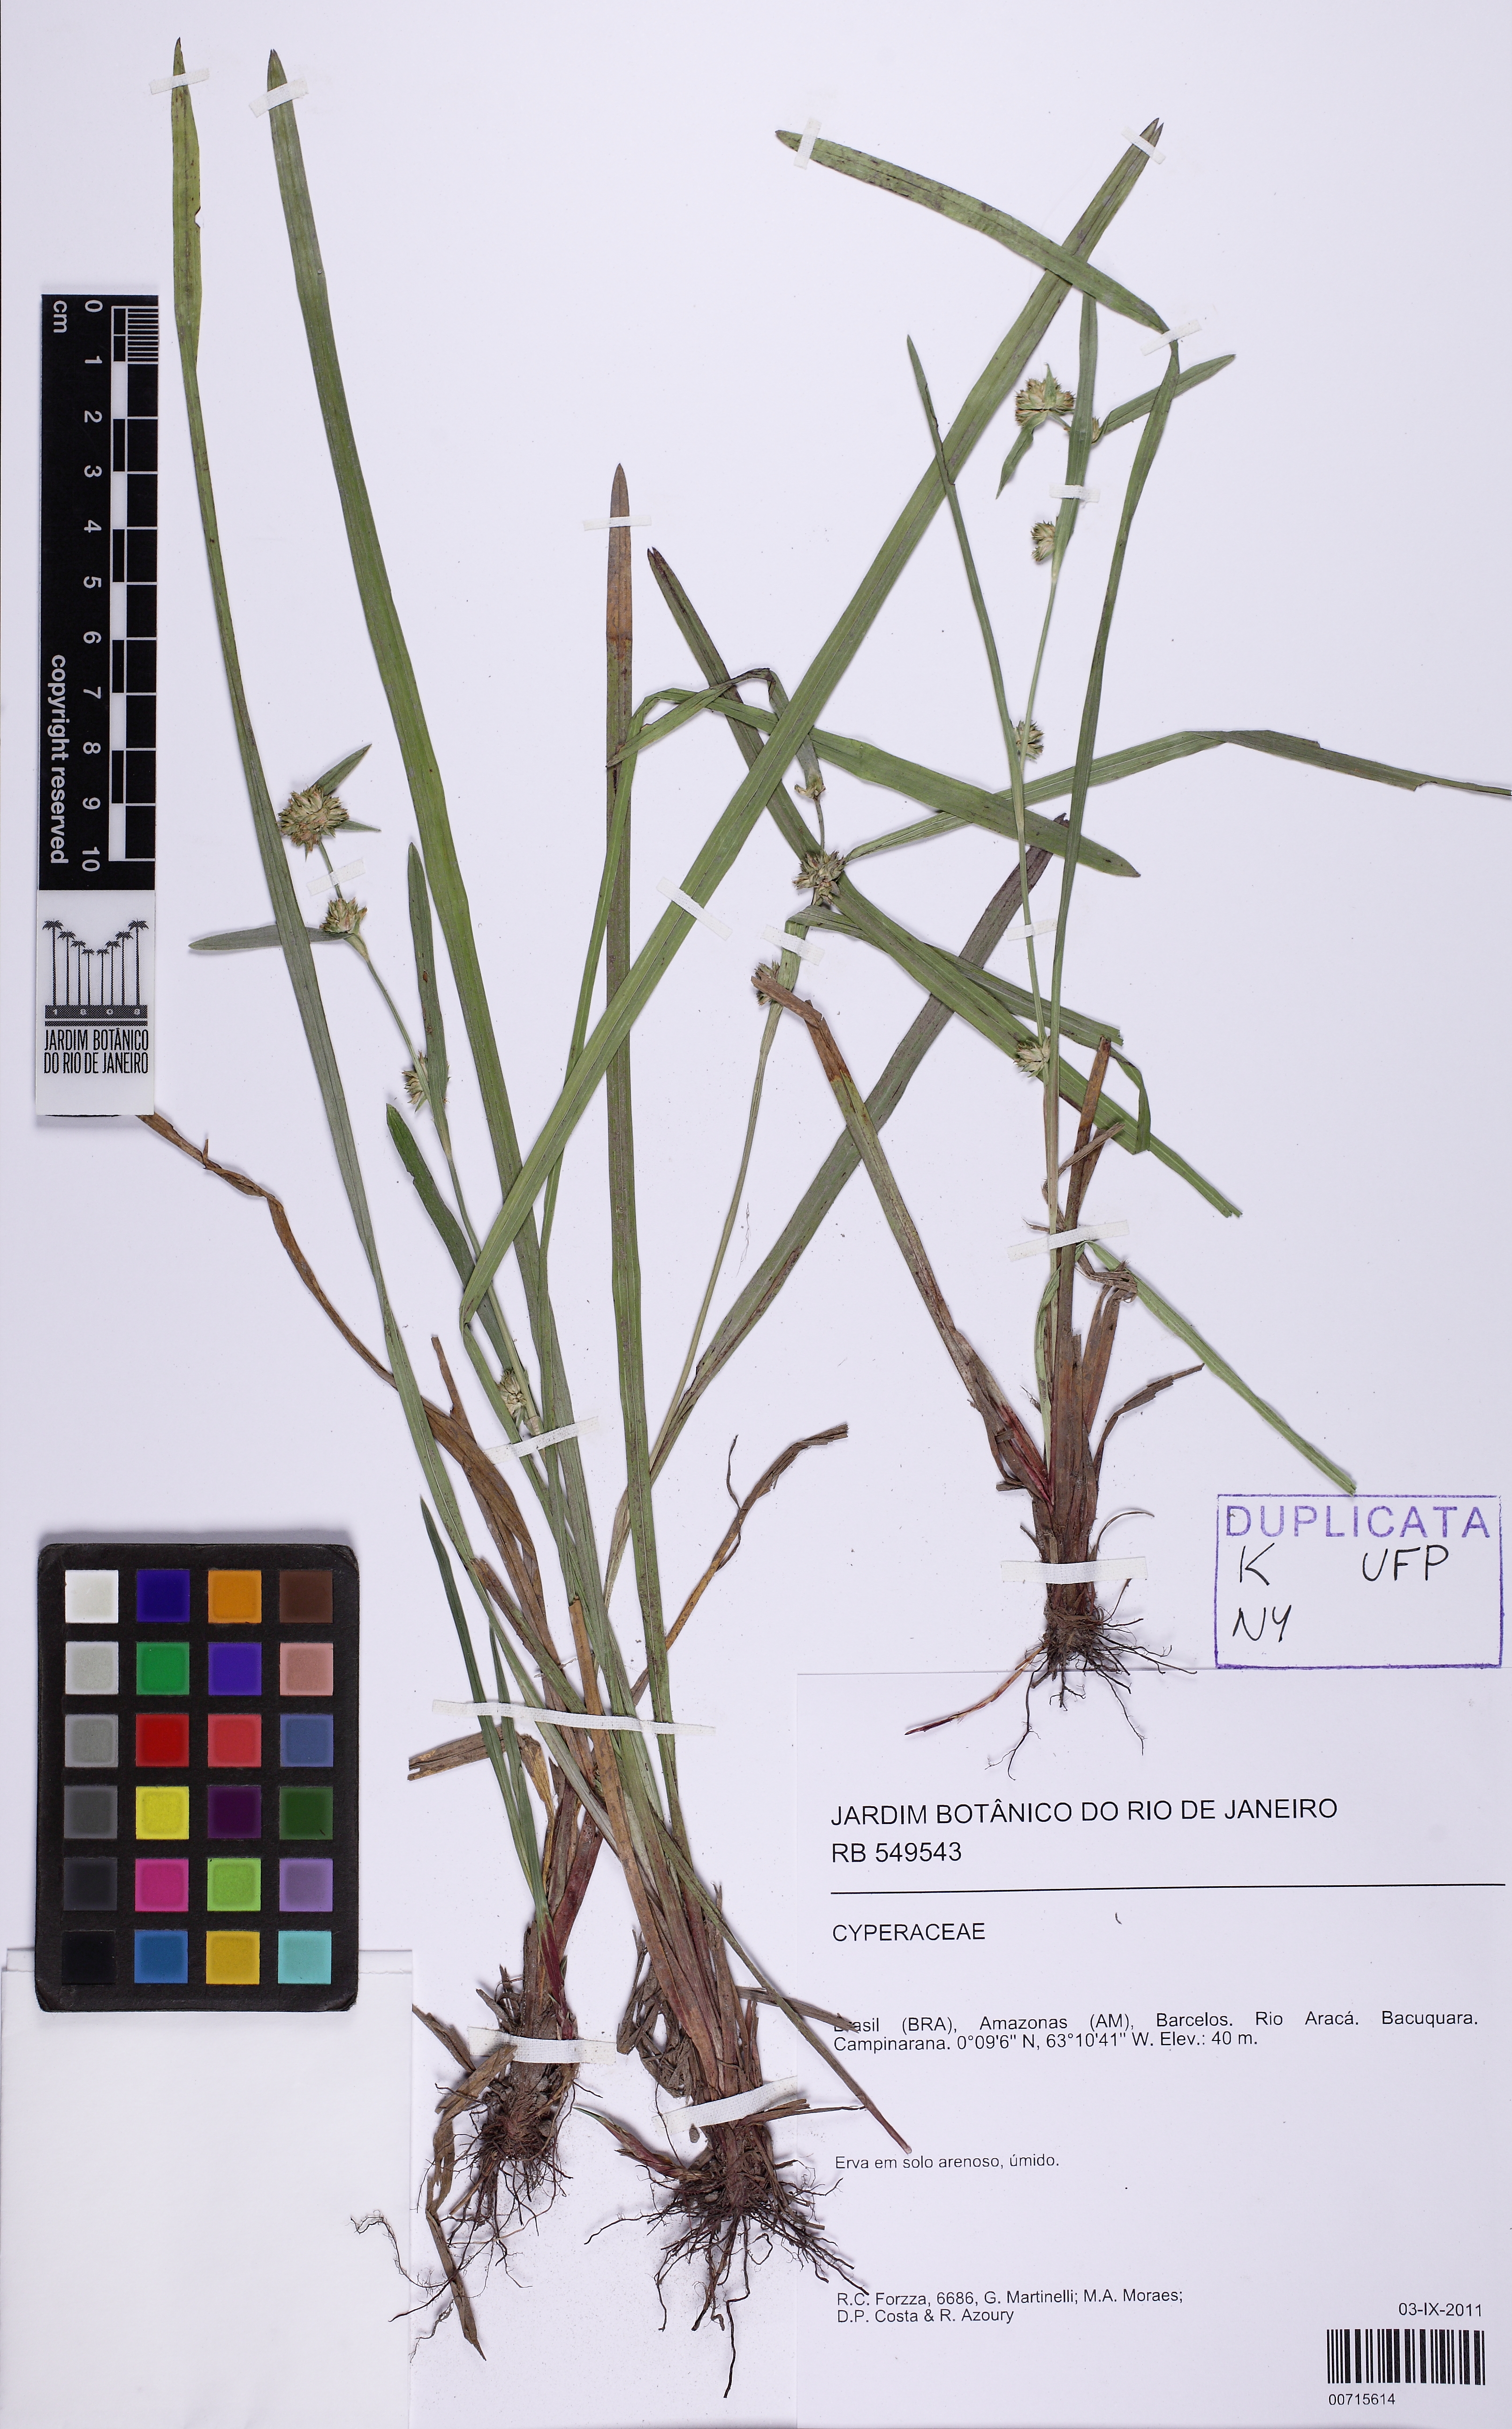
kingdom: Plantae
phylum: Tracheophyta
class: Liliopsida
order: Poales
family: Cyperaceae
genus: Diplacrum
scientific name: Diplacrum guianense
